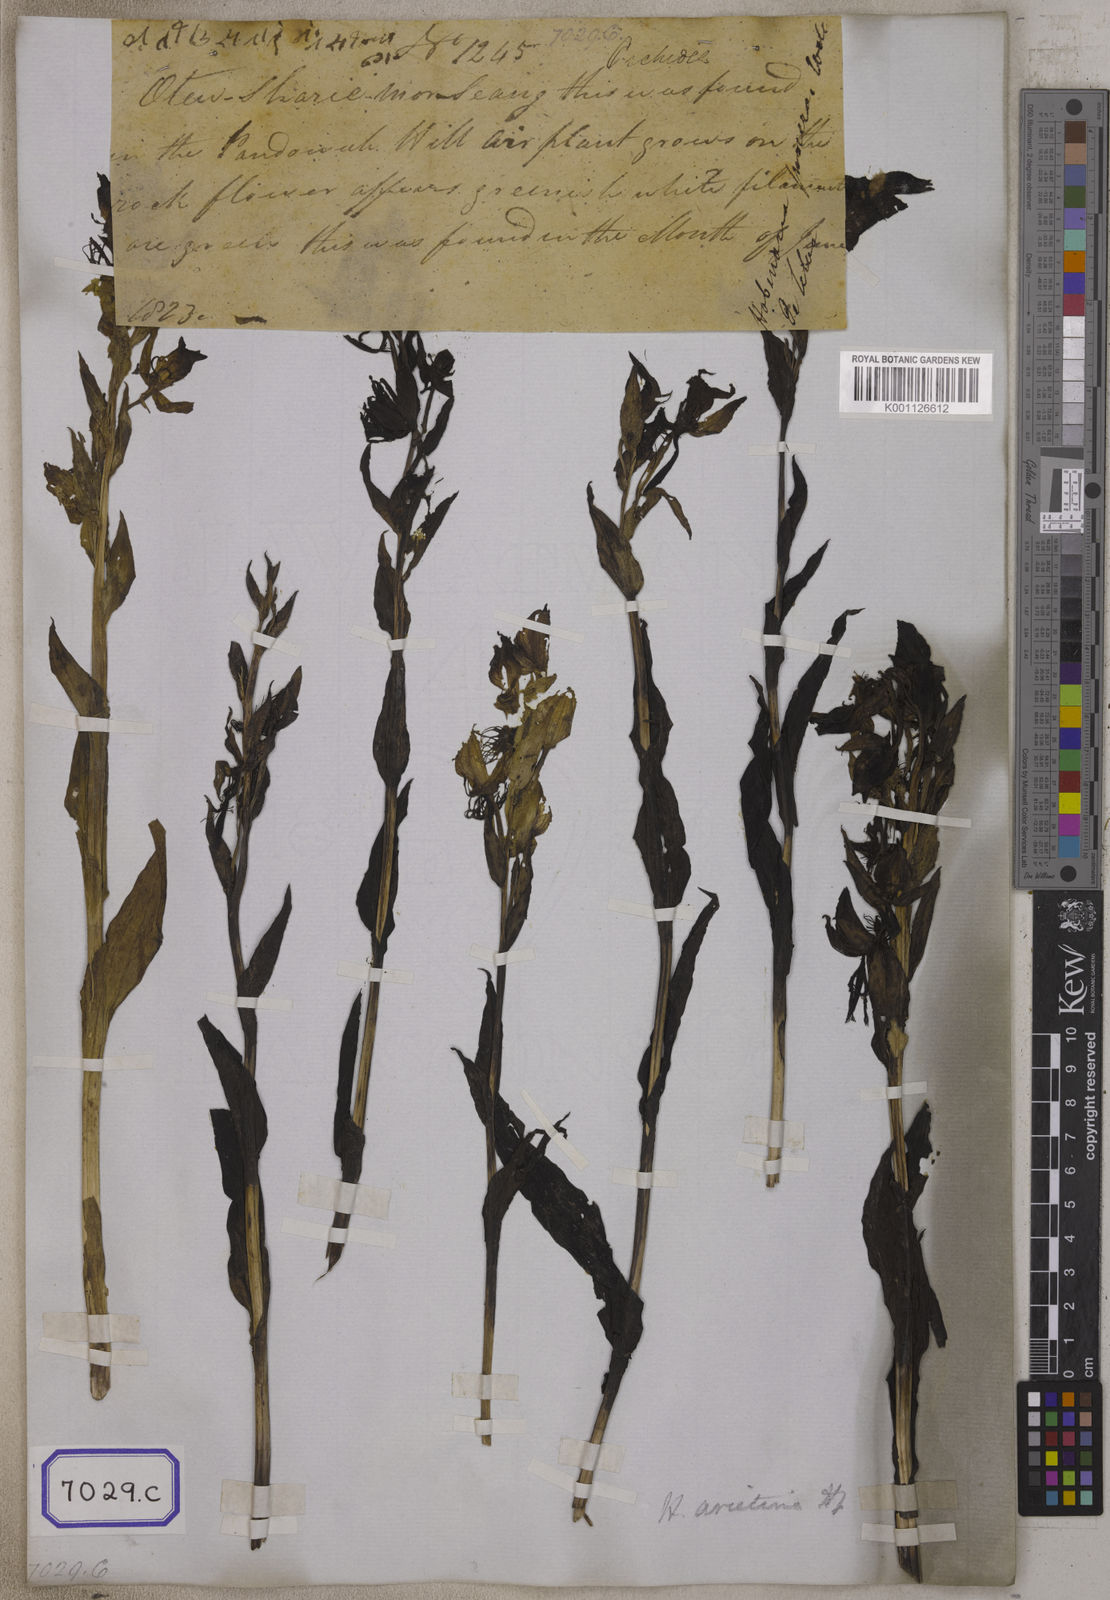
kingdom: Plantae
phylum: Tracheophyta
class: Liliopsida
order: Asparagales
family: Orchidaceae
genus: Habenaria
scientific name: Habenaria pectinata
